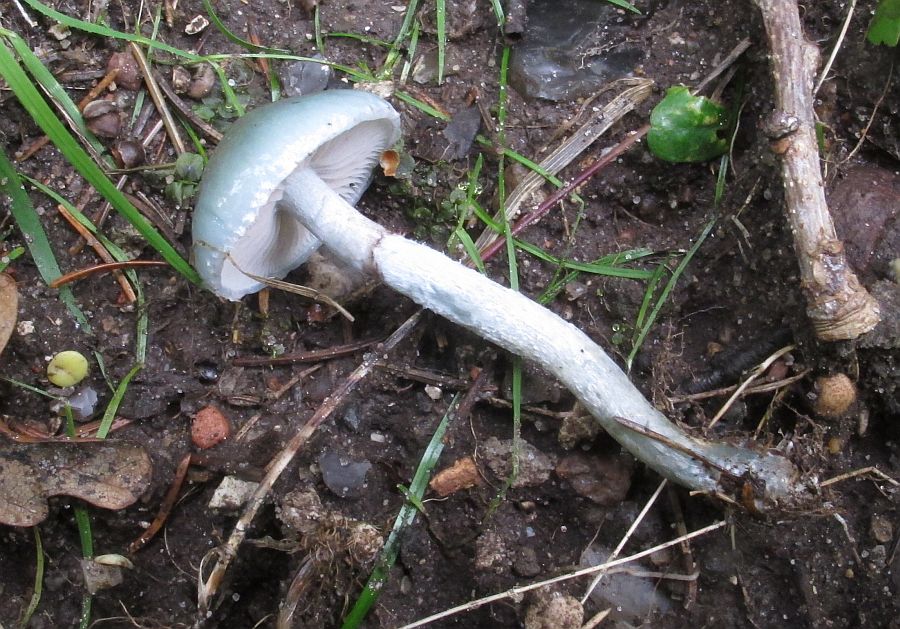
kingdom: Fungi
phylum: Basidiomycota
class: Agaricomycetes
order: Agaricales
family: Strophariaceae
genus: Stropharia
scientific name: Stropharia cyanea
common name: blågrøn bredblad
